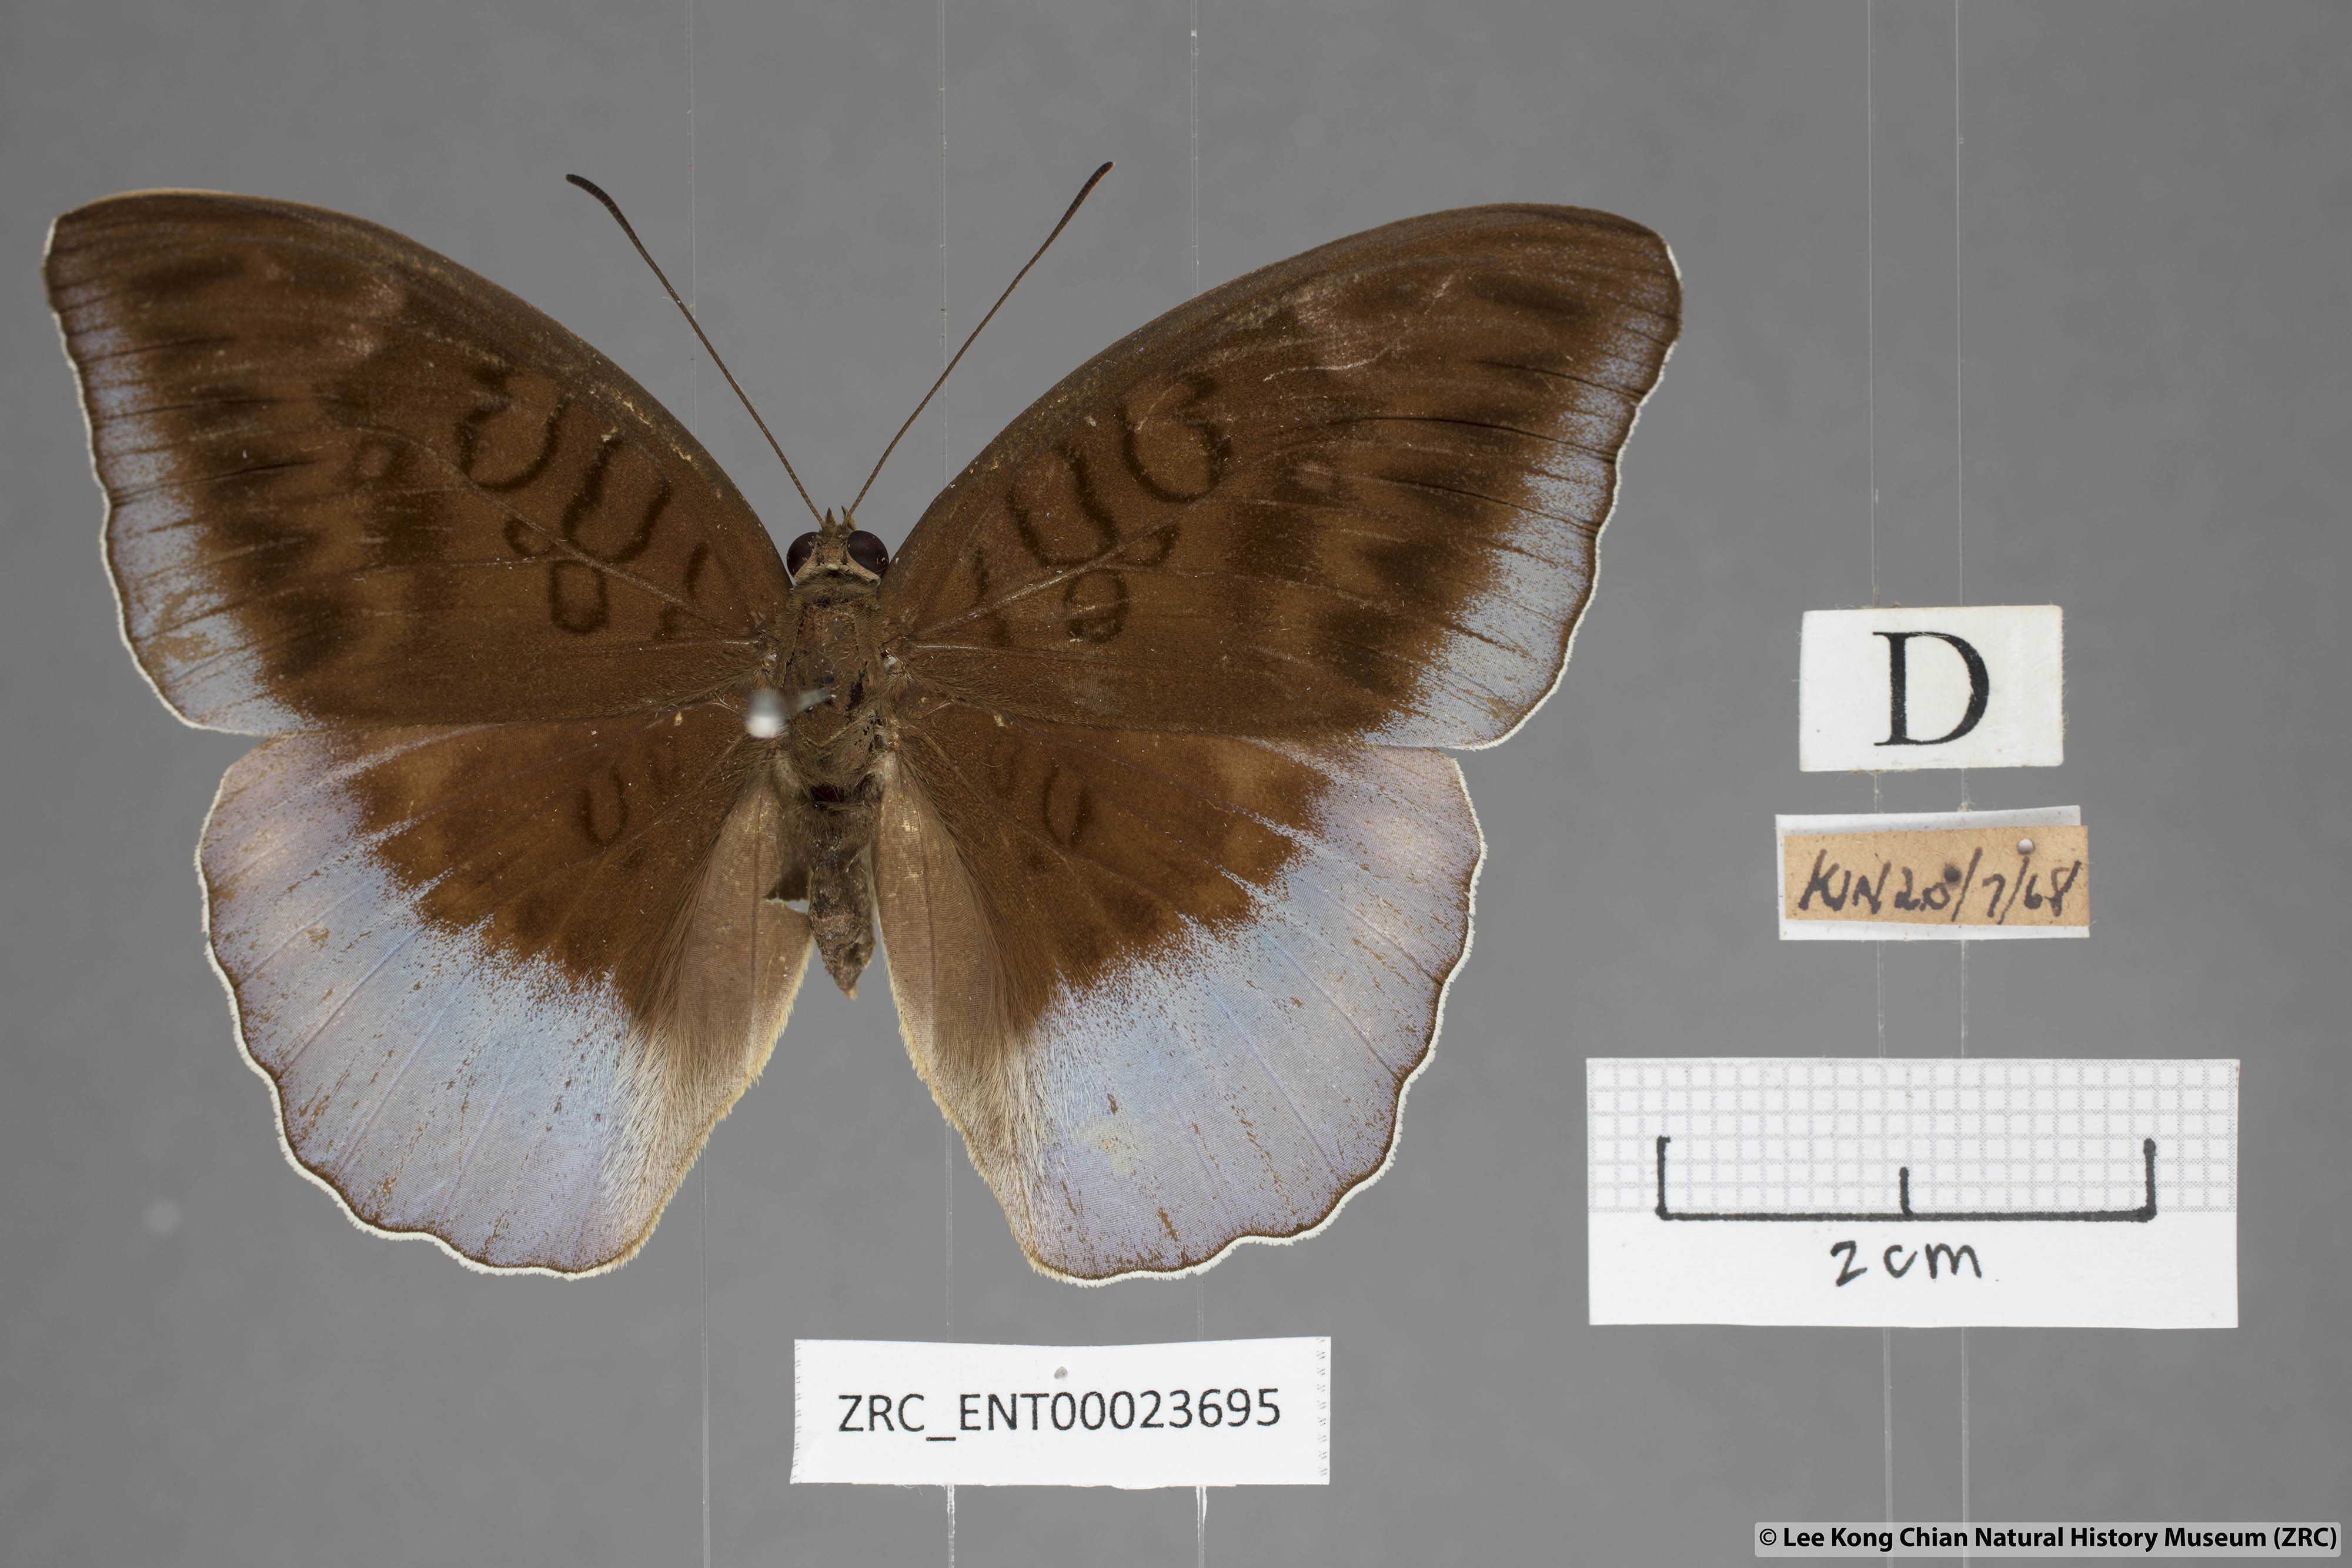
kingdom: Animalia
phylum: Arthropoda
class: Insecta
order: Lepidoptera
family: Nymphalidae
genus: Tanaecia
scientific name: Tanaecia flora
